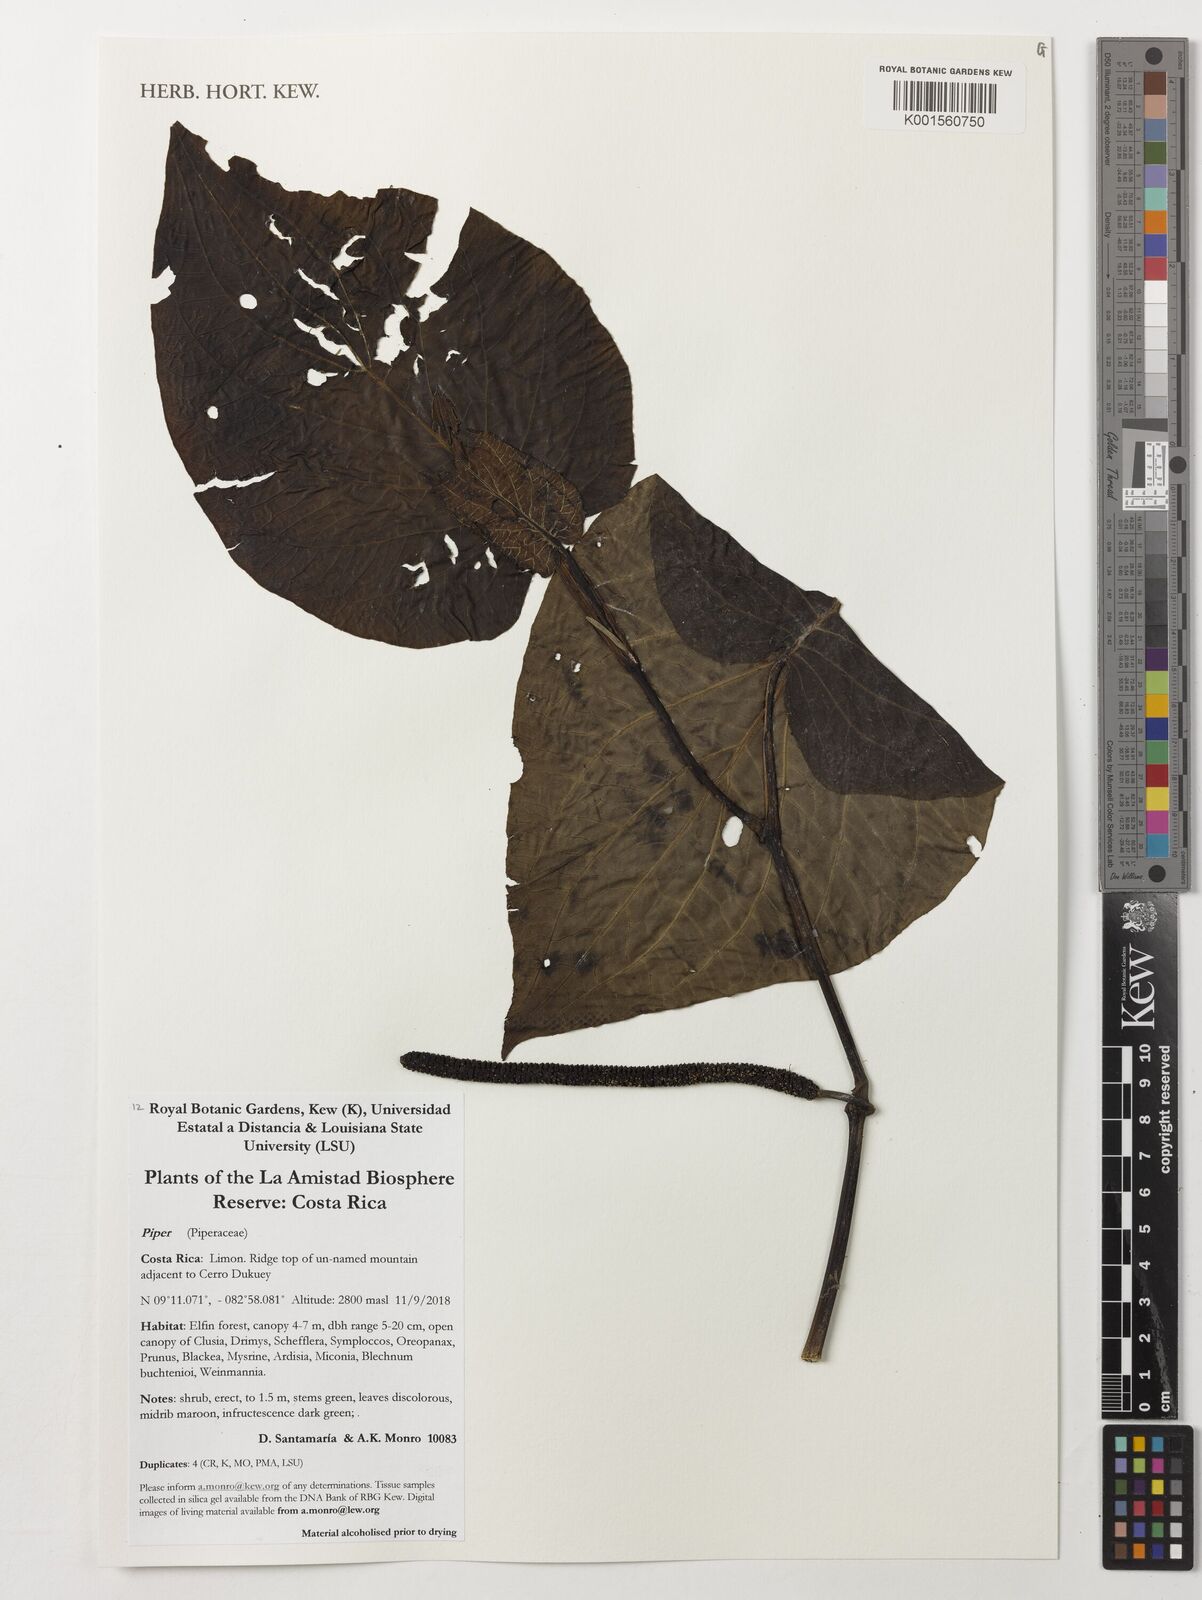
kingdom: Plantae
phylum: Tracheophyta
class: Magnoliopsida
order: Piperales
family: Piperaceae
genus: Piper
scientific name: Piper
